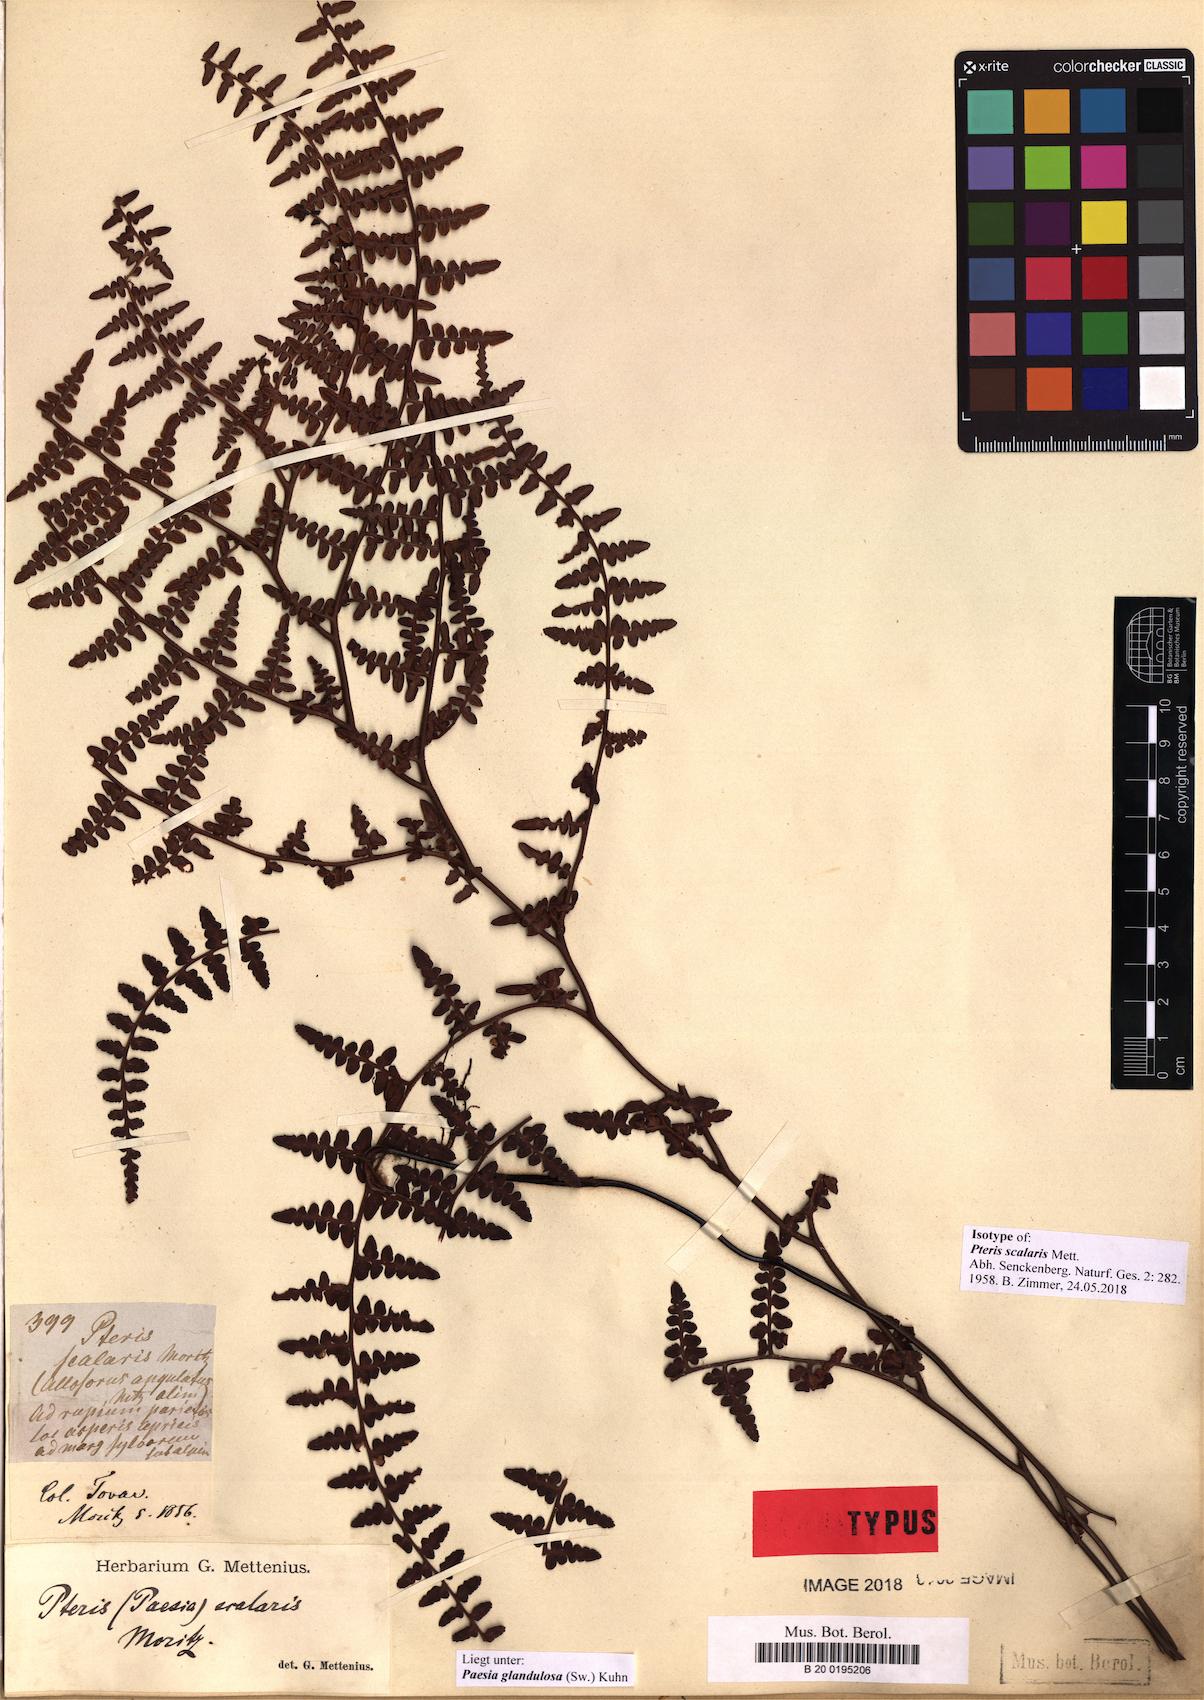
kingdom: Plantae
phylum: Tracheophyta
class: Polypodiopsida
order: Polypodiales
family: Dennstaedtiaceae
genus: Paesia
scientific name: Paesia glandulosa
